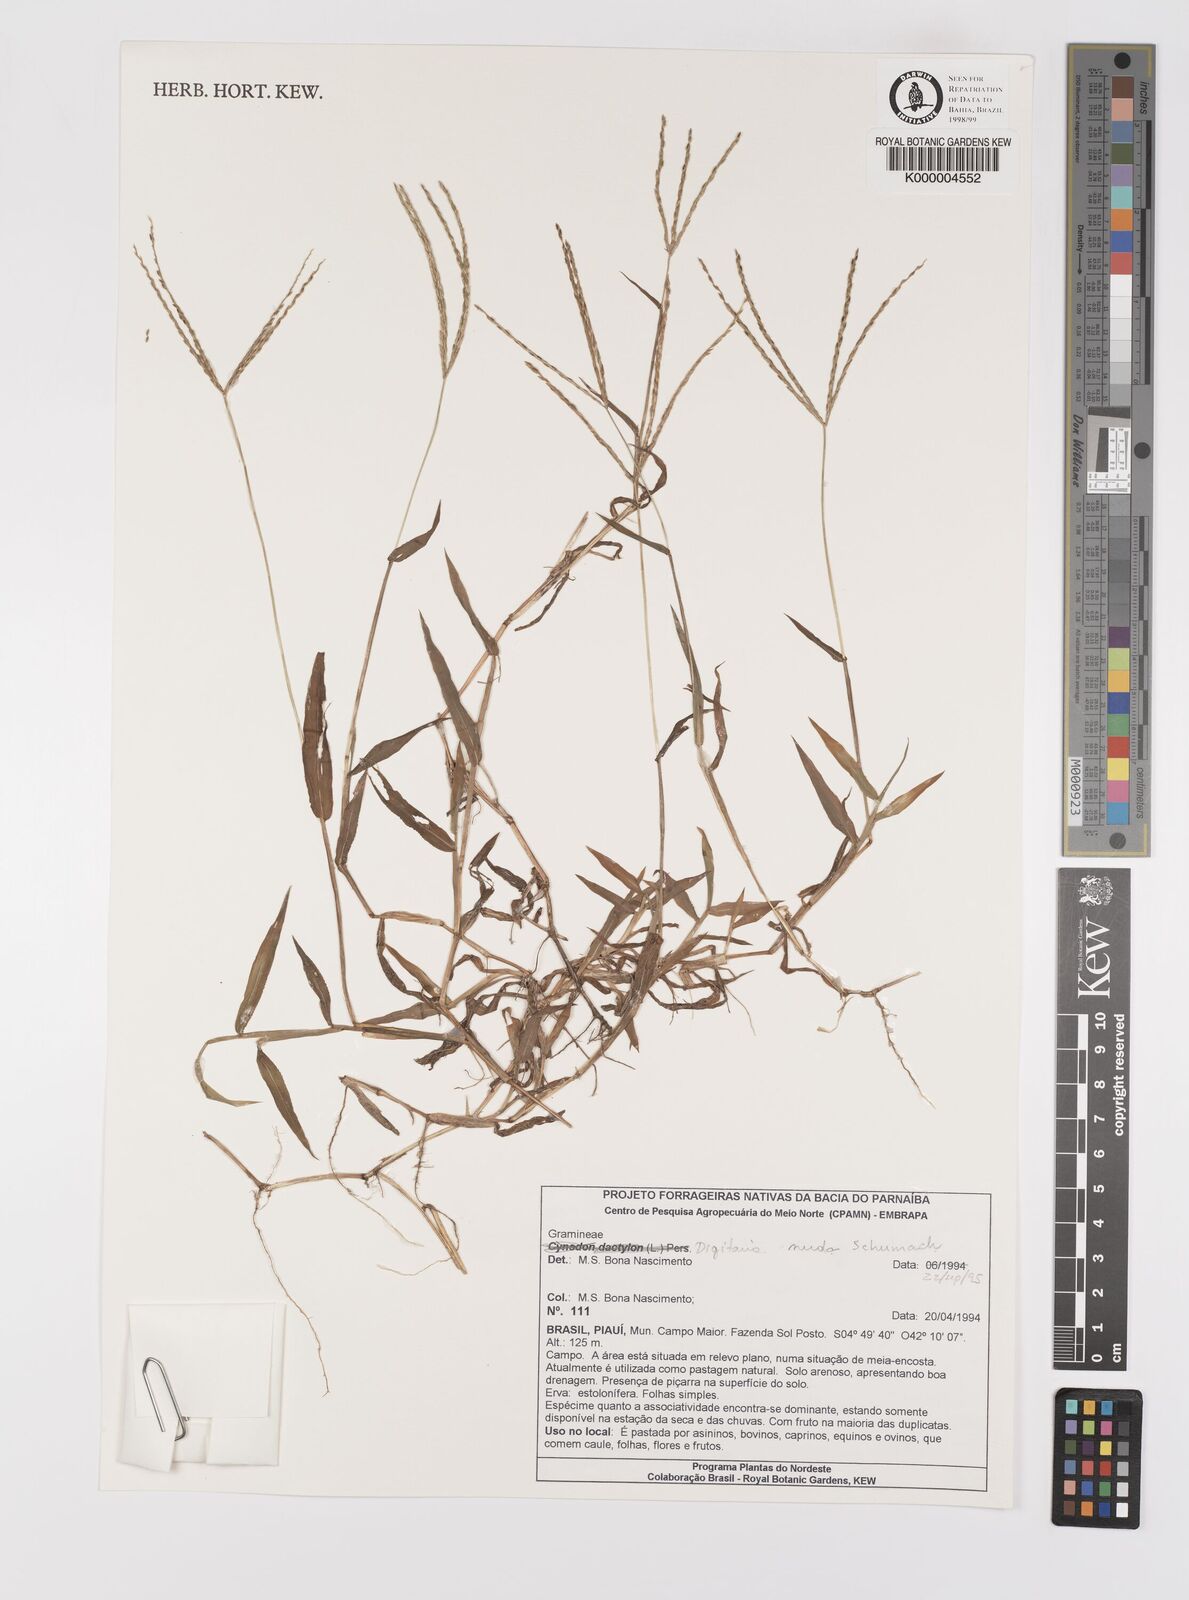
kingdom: Plantae
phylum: Tracheophyta
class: Liliopsida
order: Poales
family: Poaceae
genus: Digitaria
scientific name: Digitaria nuda
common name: Naked crabgrass
